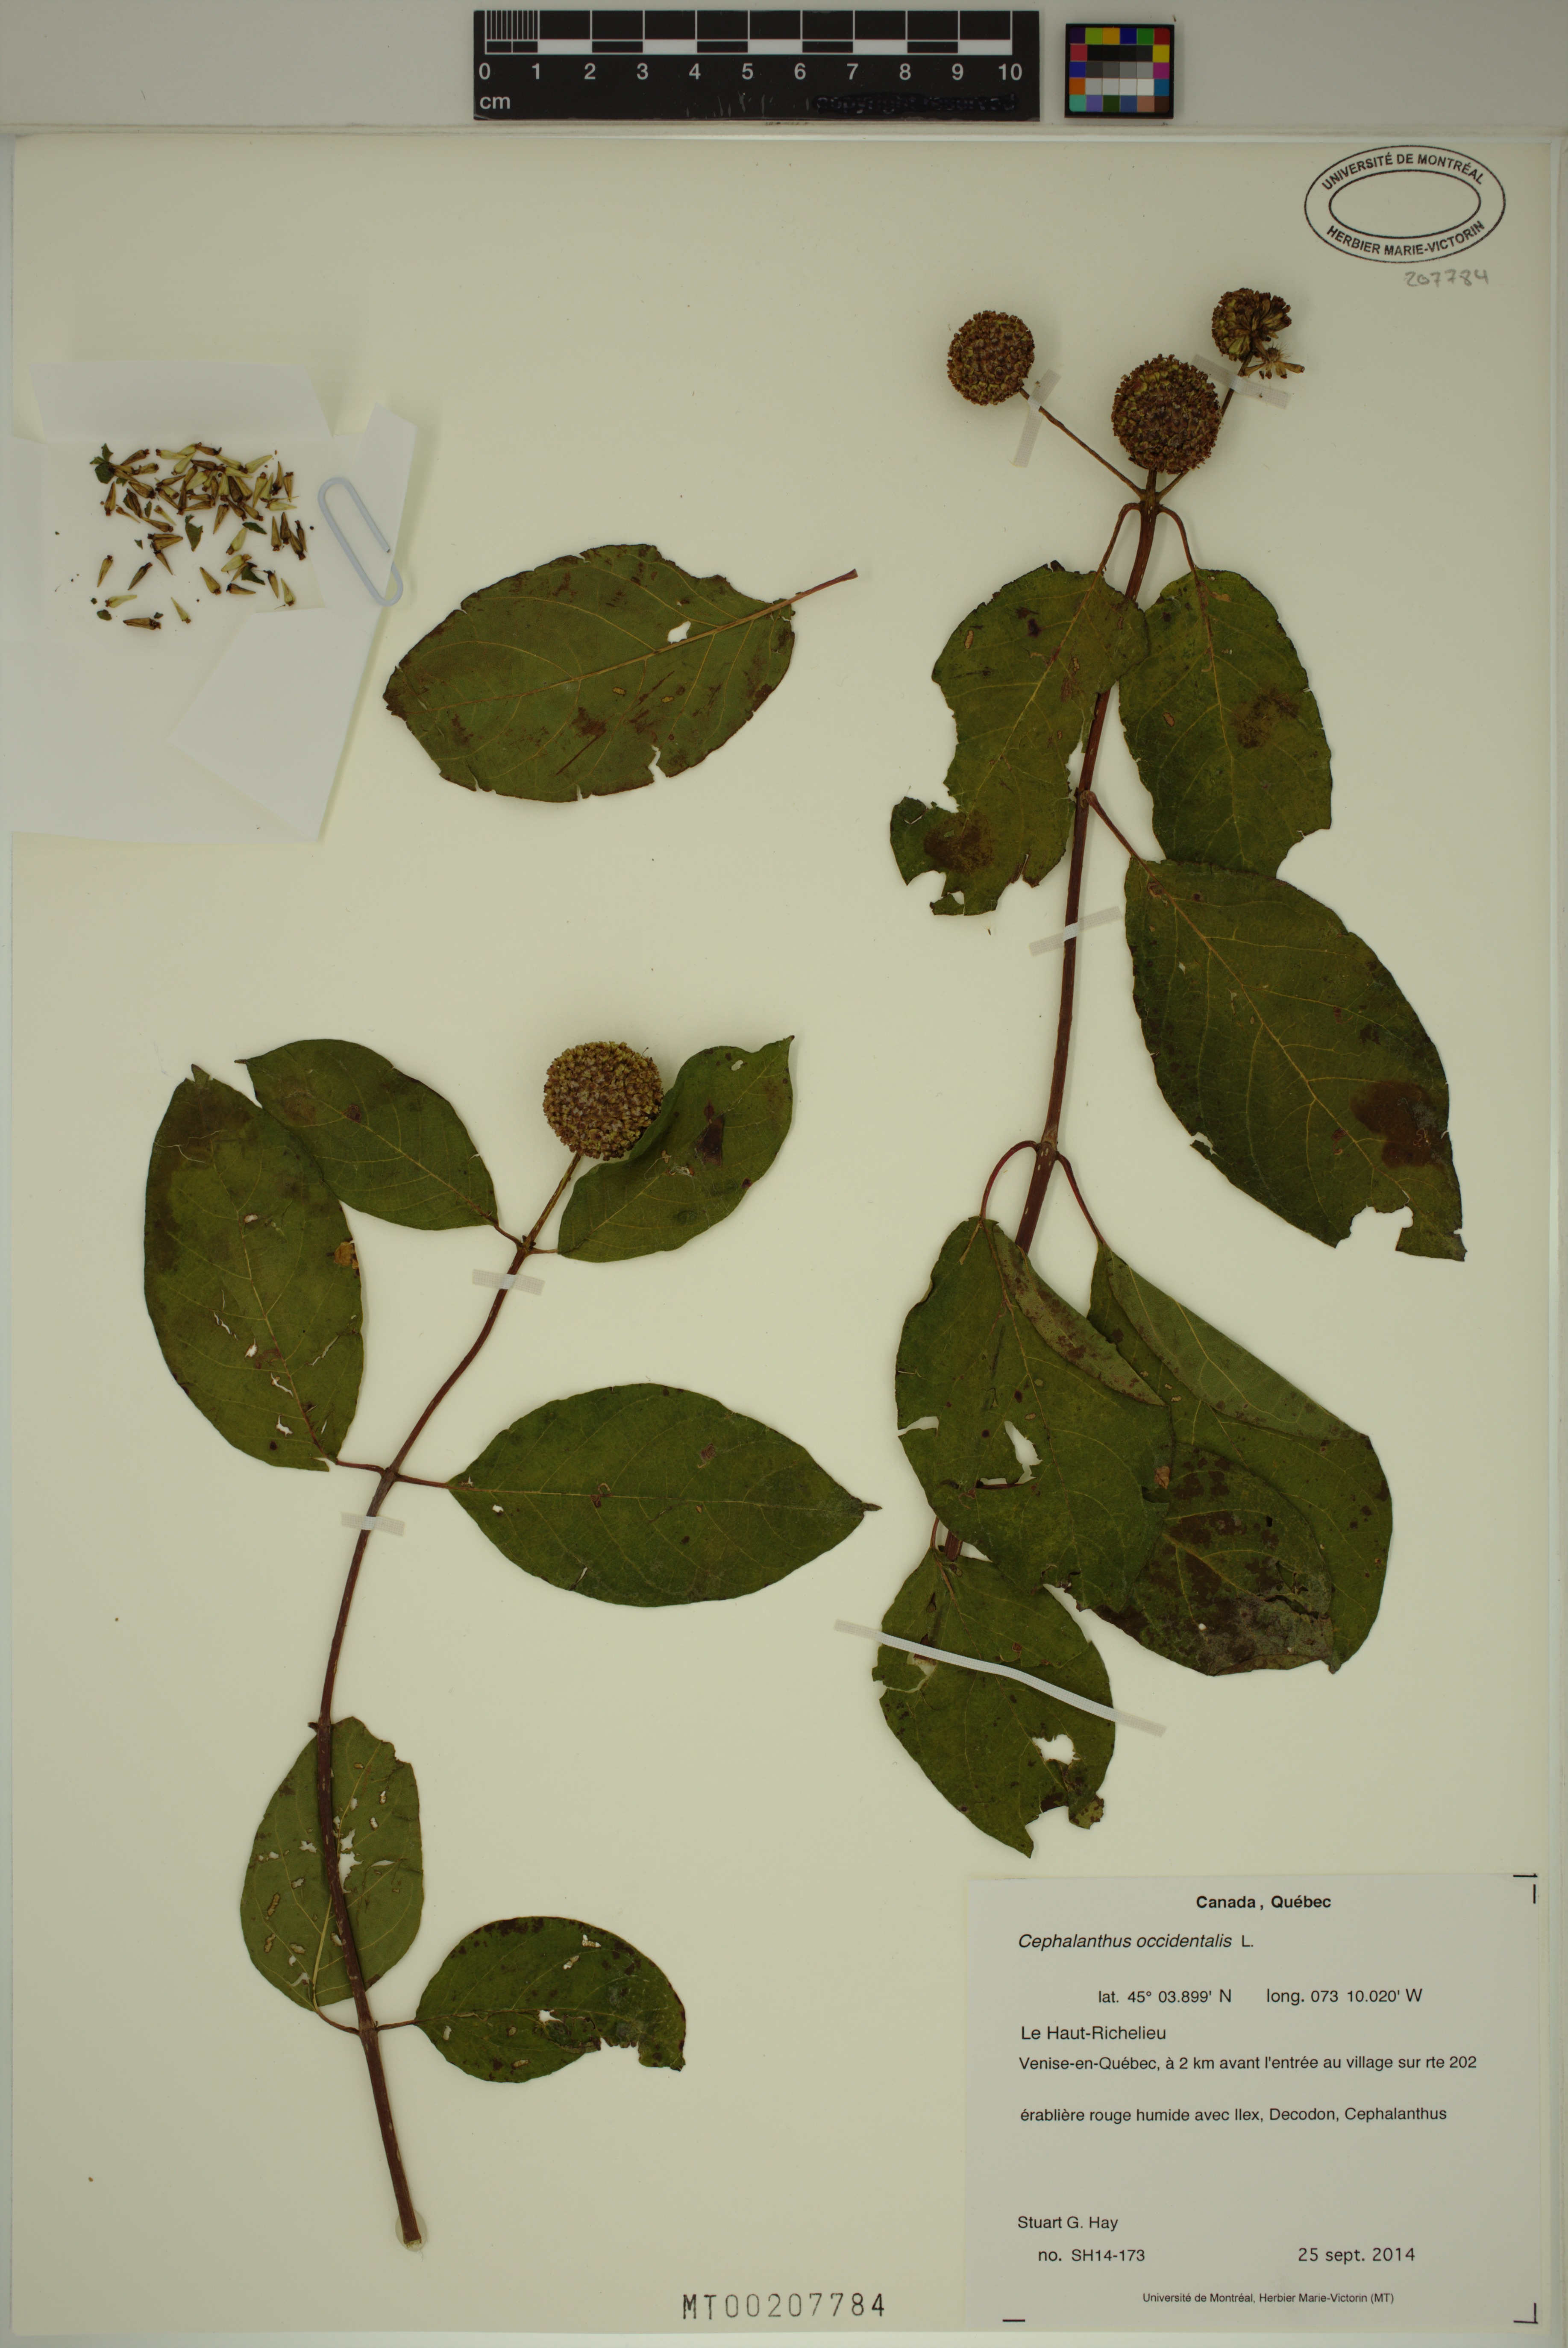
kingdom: Plantae
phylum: Tracheophyta
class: Magnoliopsida
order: Gentianales
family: Rubiaceae
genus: Cephalanthus
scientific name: Cephalanthus occidentalis
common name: Button-willow
